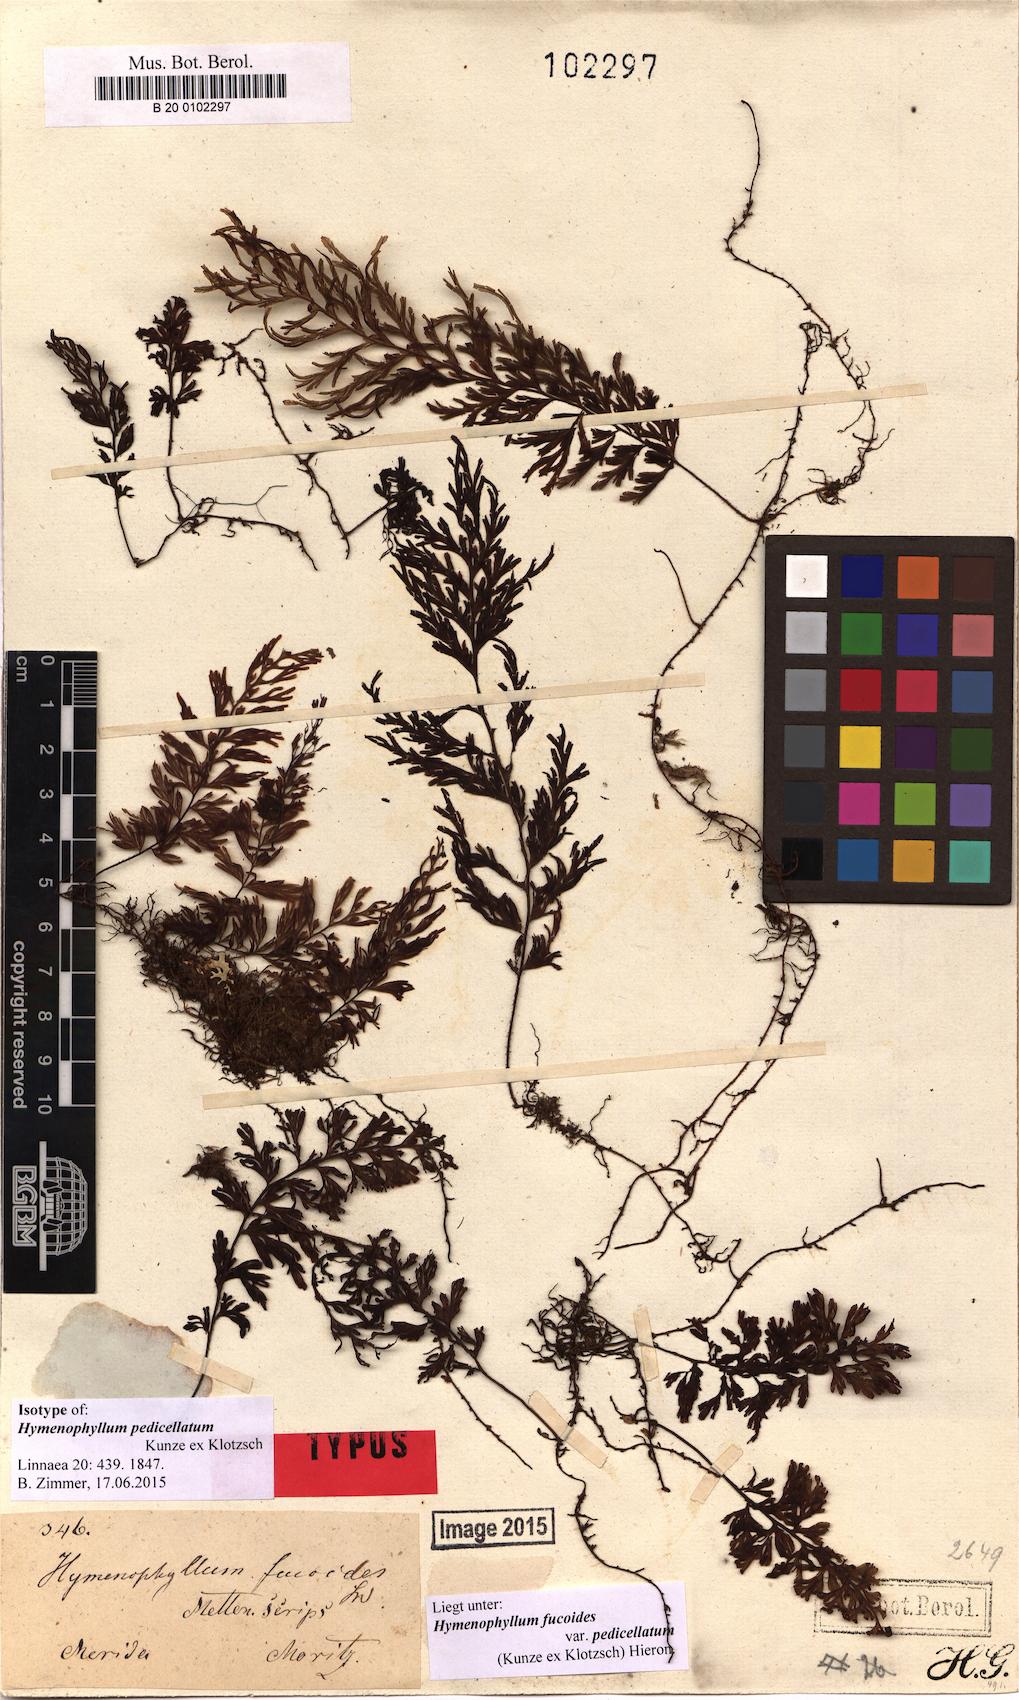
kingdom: Plantae
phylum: Tracheophyta
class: Polypodiopsida
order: Hymenophyllales
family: Hymenophyllaceae
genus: Hymenophyllum
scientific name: Hymenophyllum fucoides
